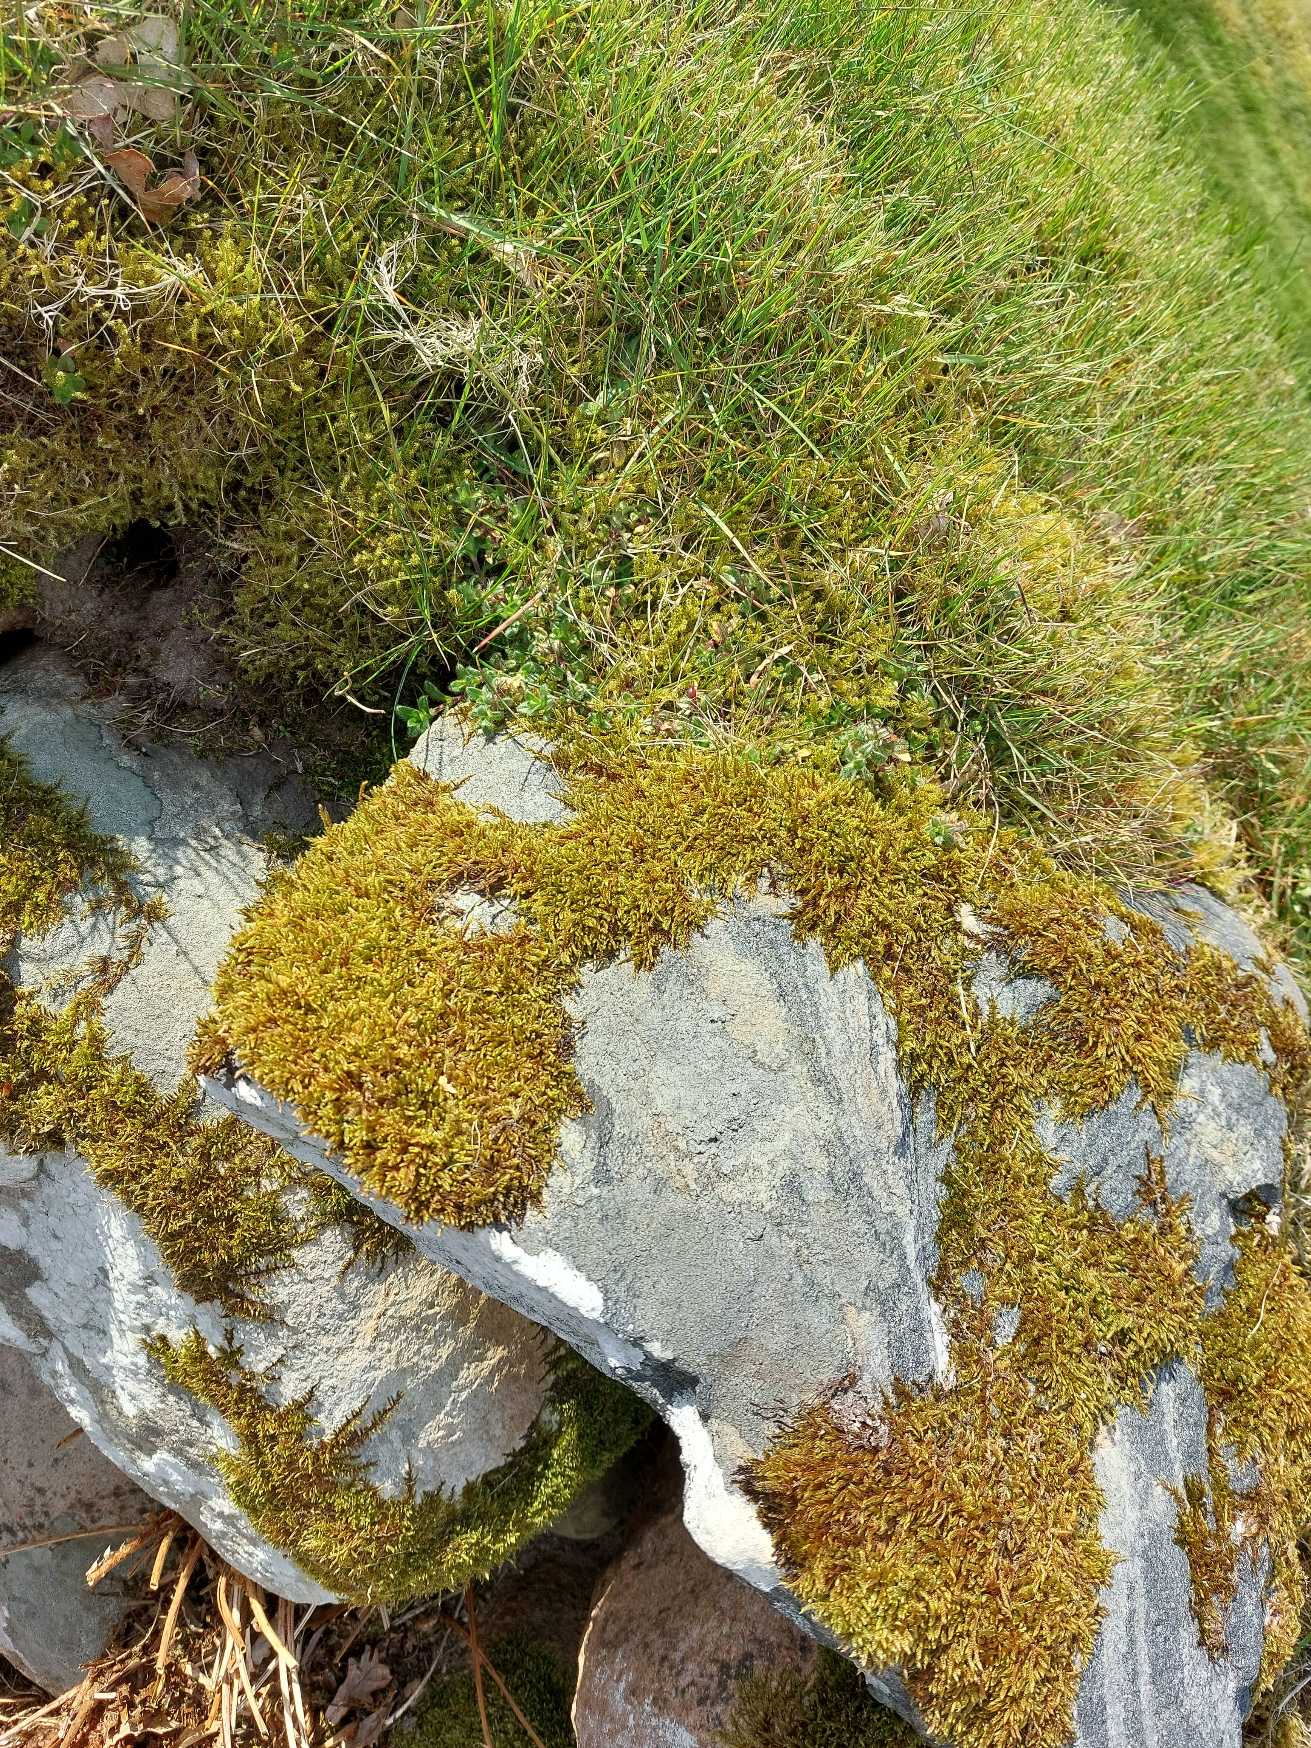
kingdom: Plantae
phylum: Bryophyta
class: Bryopsida
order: Hypnales
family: Hypnaceae
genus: Hypnum
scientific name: Hypnum cupressiforme
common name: Almindelig cypresmos
